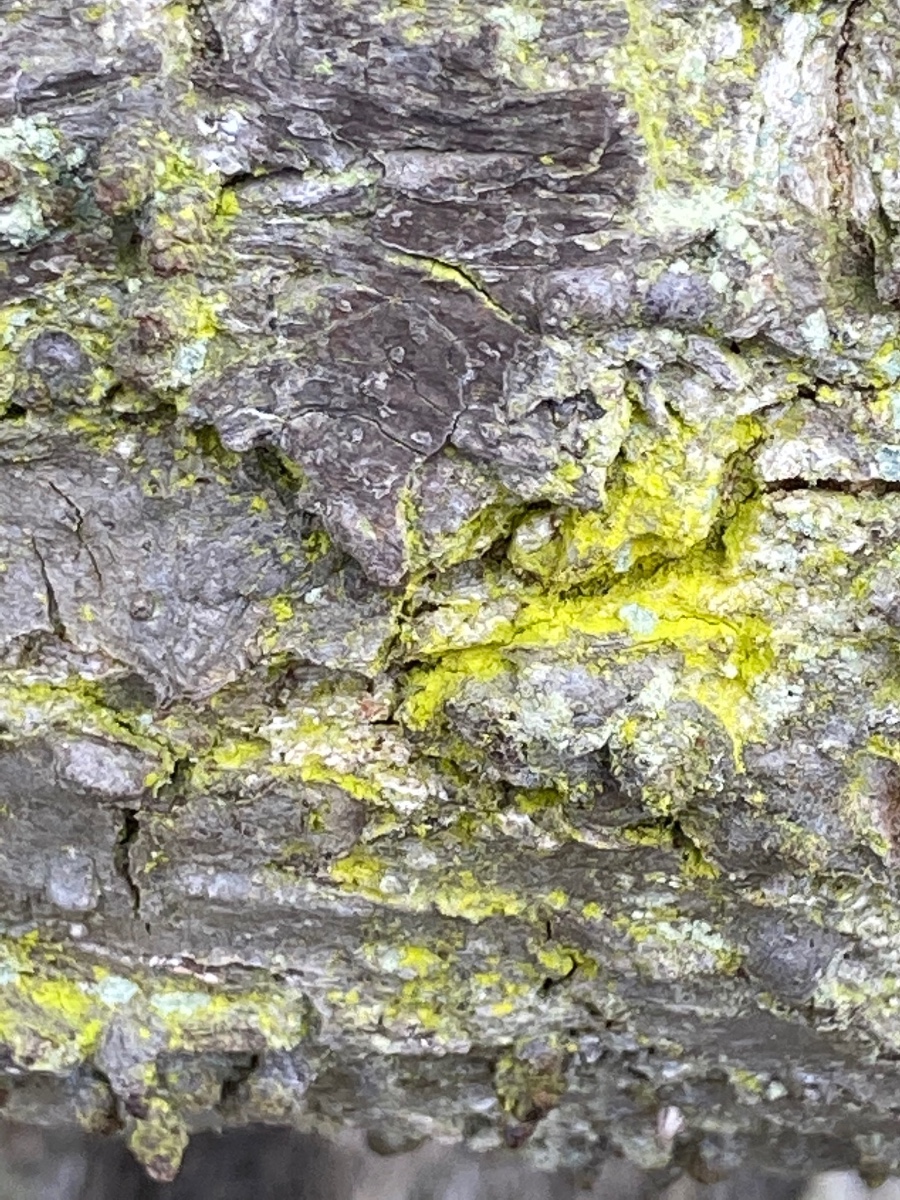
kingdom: Fungi
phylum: Ascomycota
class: Arthoniomycetes
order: Arthoniales
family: Chrysotrichaceae
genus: Chrysothrix
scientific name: Chrysothrix candelaris
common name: gul støvlav
